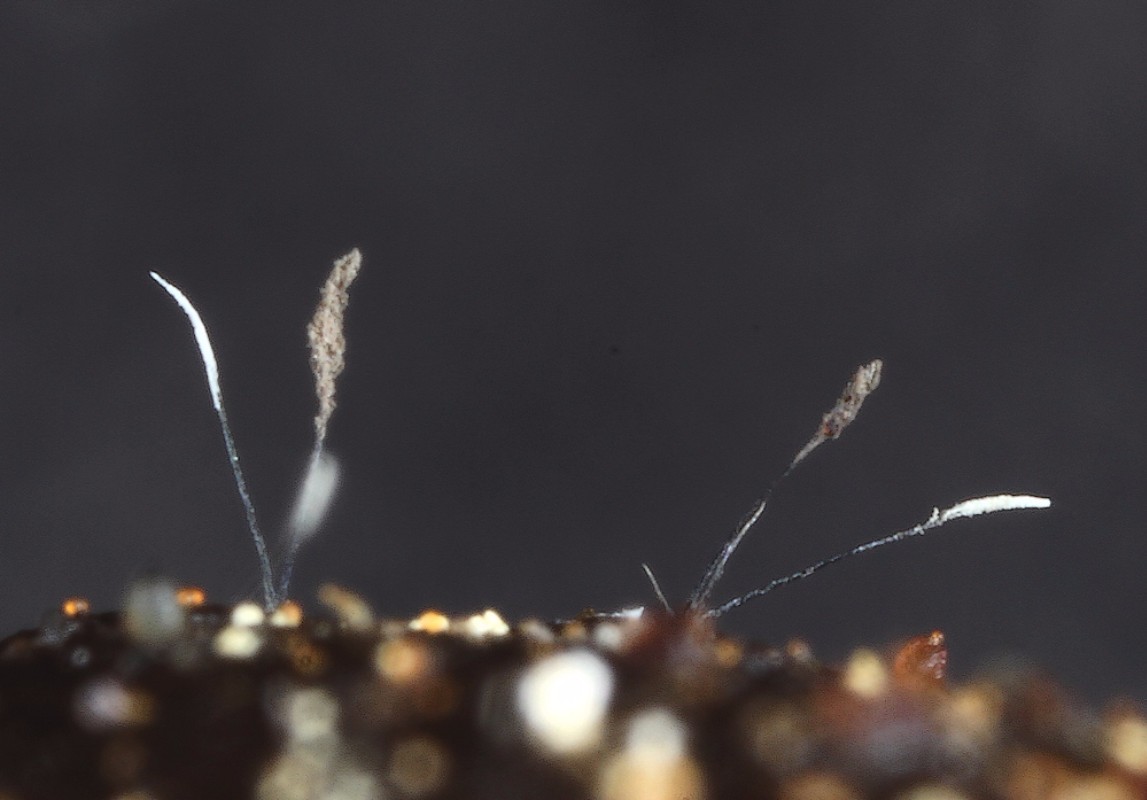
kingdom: Fungi
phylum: Ascomycota
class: Sordariomycetes
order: Microascales
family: Microascaceae
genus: Cephalotrichum
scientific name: Cephalotrichum heliciforme
